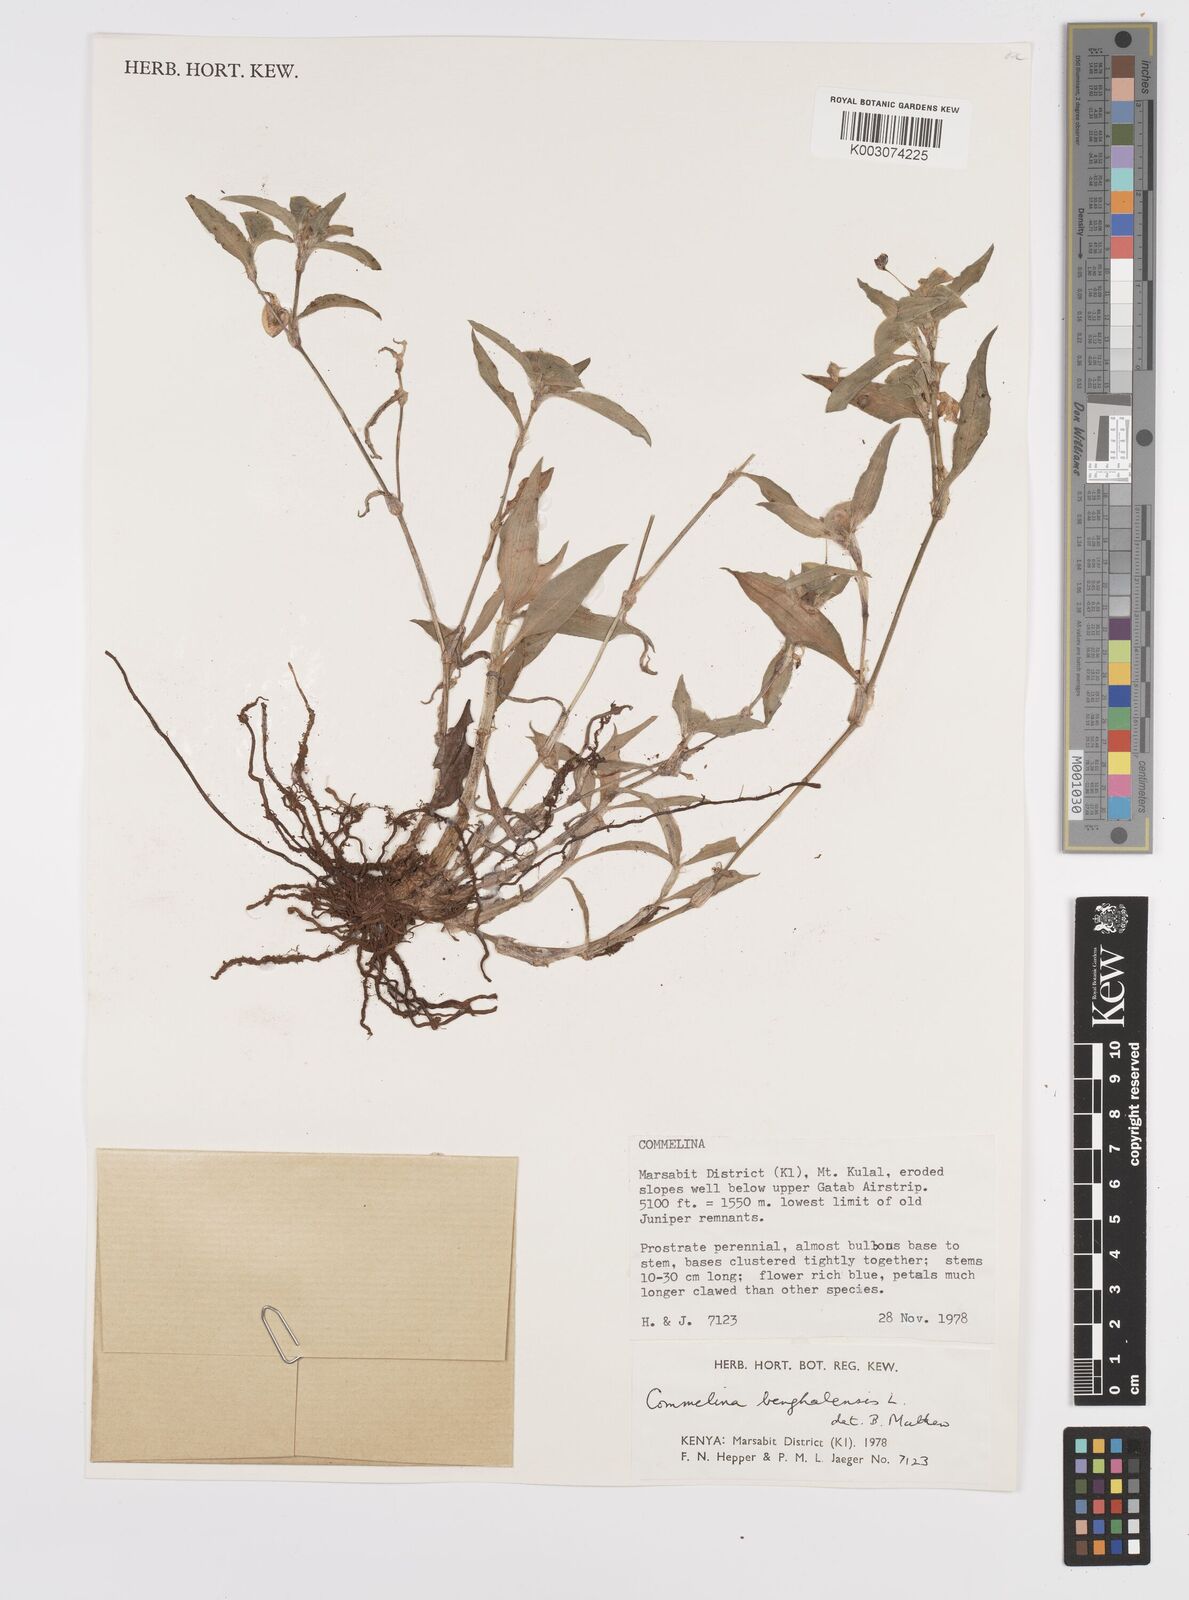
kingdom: Plantae
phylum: Tracheophyta
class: Liliopsida
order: Commelinales
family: Commelinaceae
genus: Commelina
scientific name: Commelina benghalensis
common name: Jio
